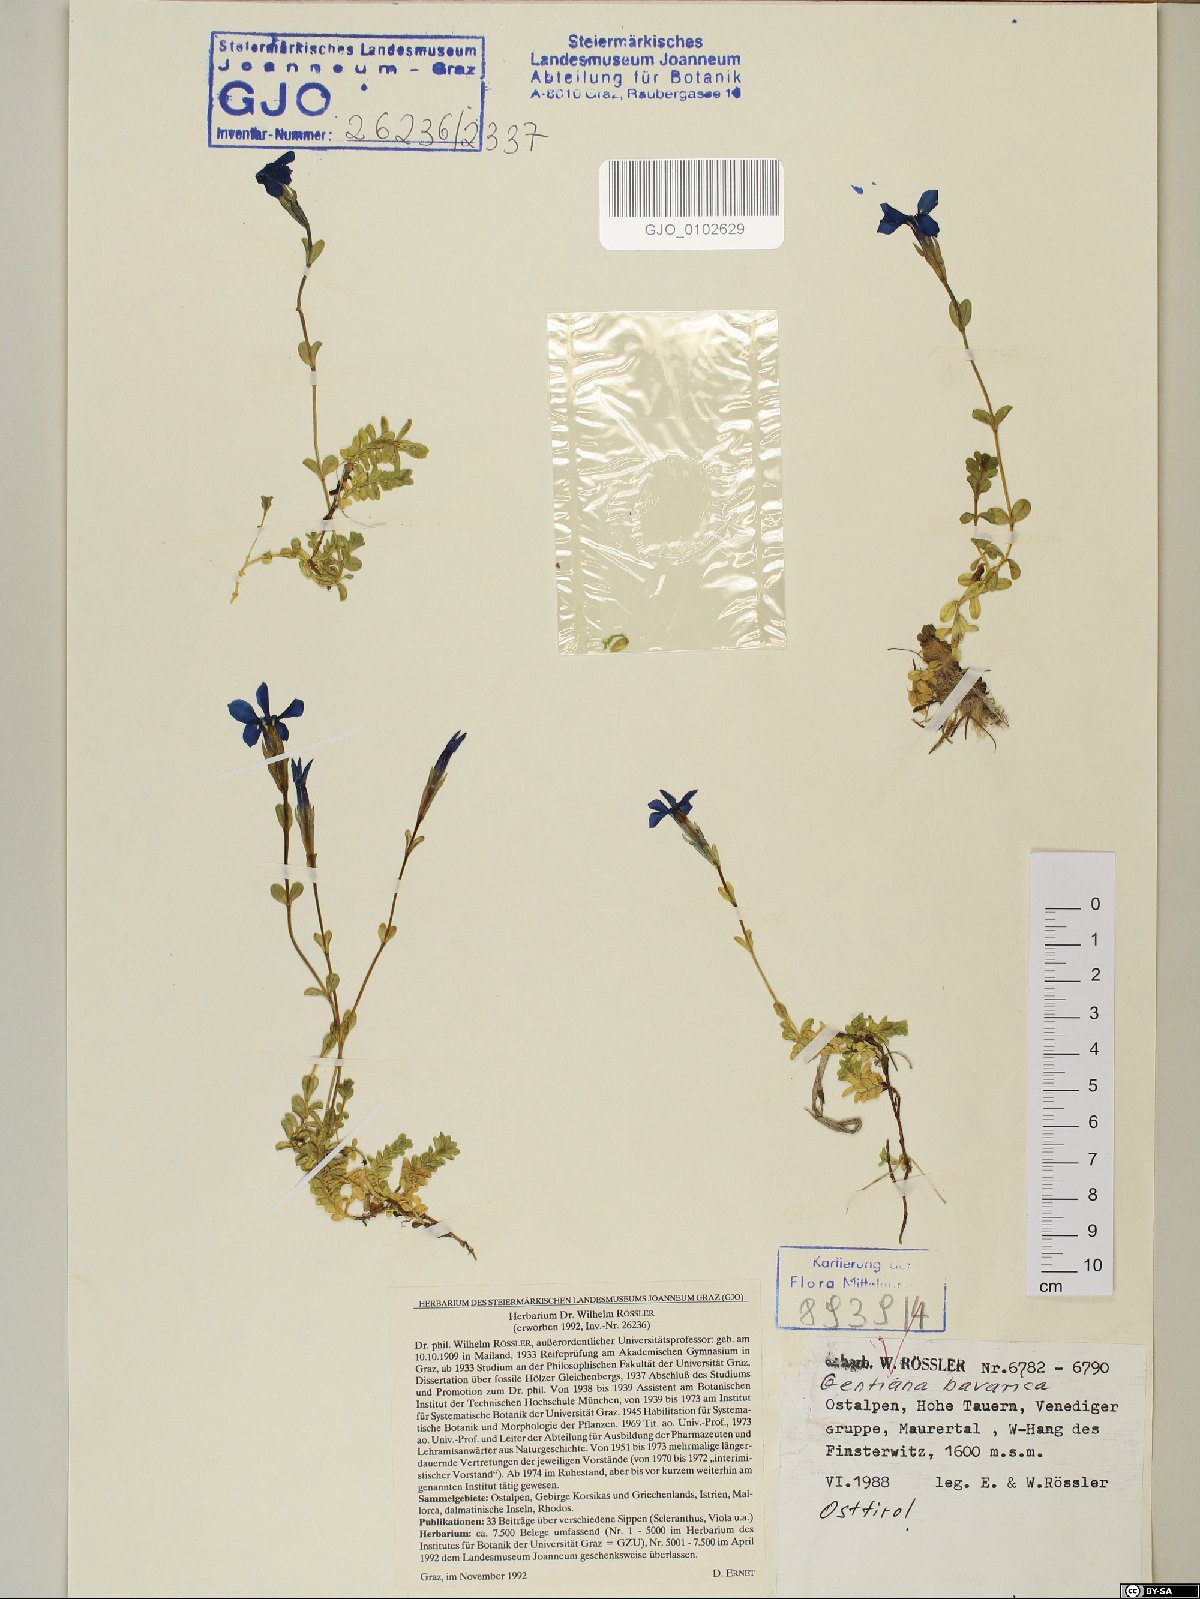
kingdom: Plantae
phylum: Tracheophyta
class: Magnoliopsida
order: Gentianales
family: Gentianaceae
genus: Gentiana
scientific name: Gentiana bavarica
